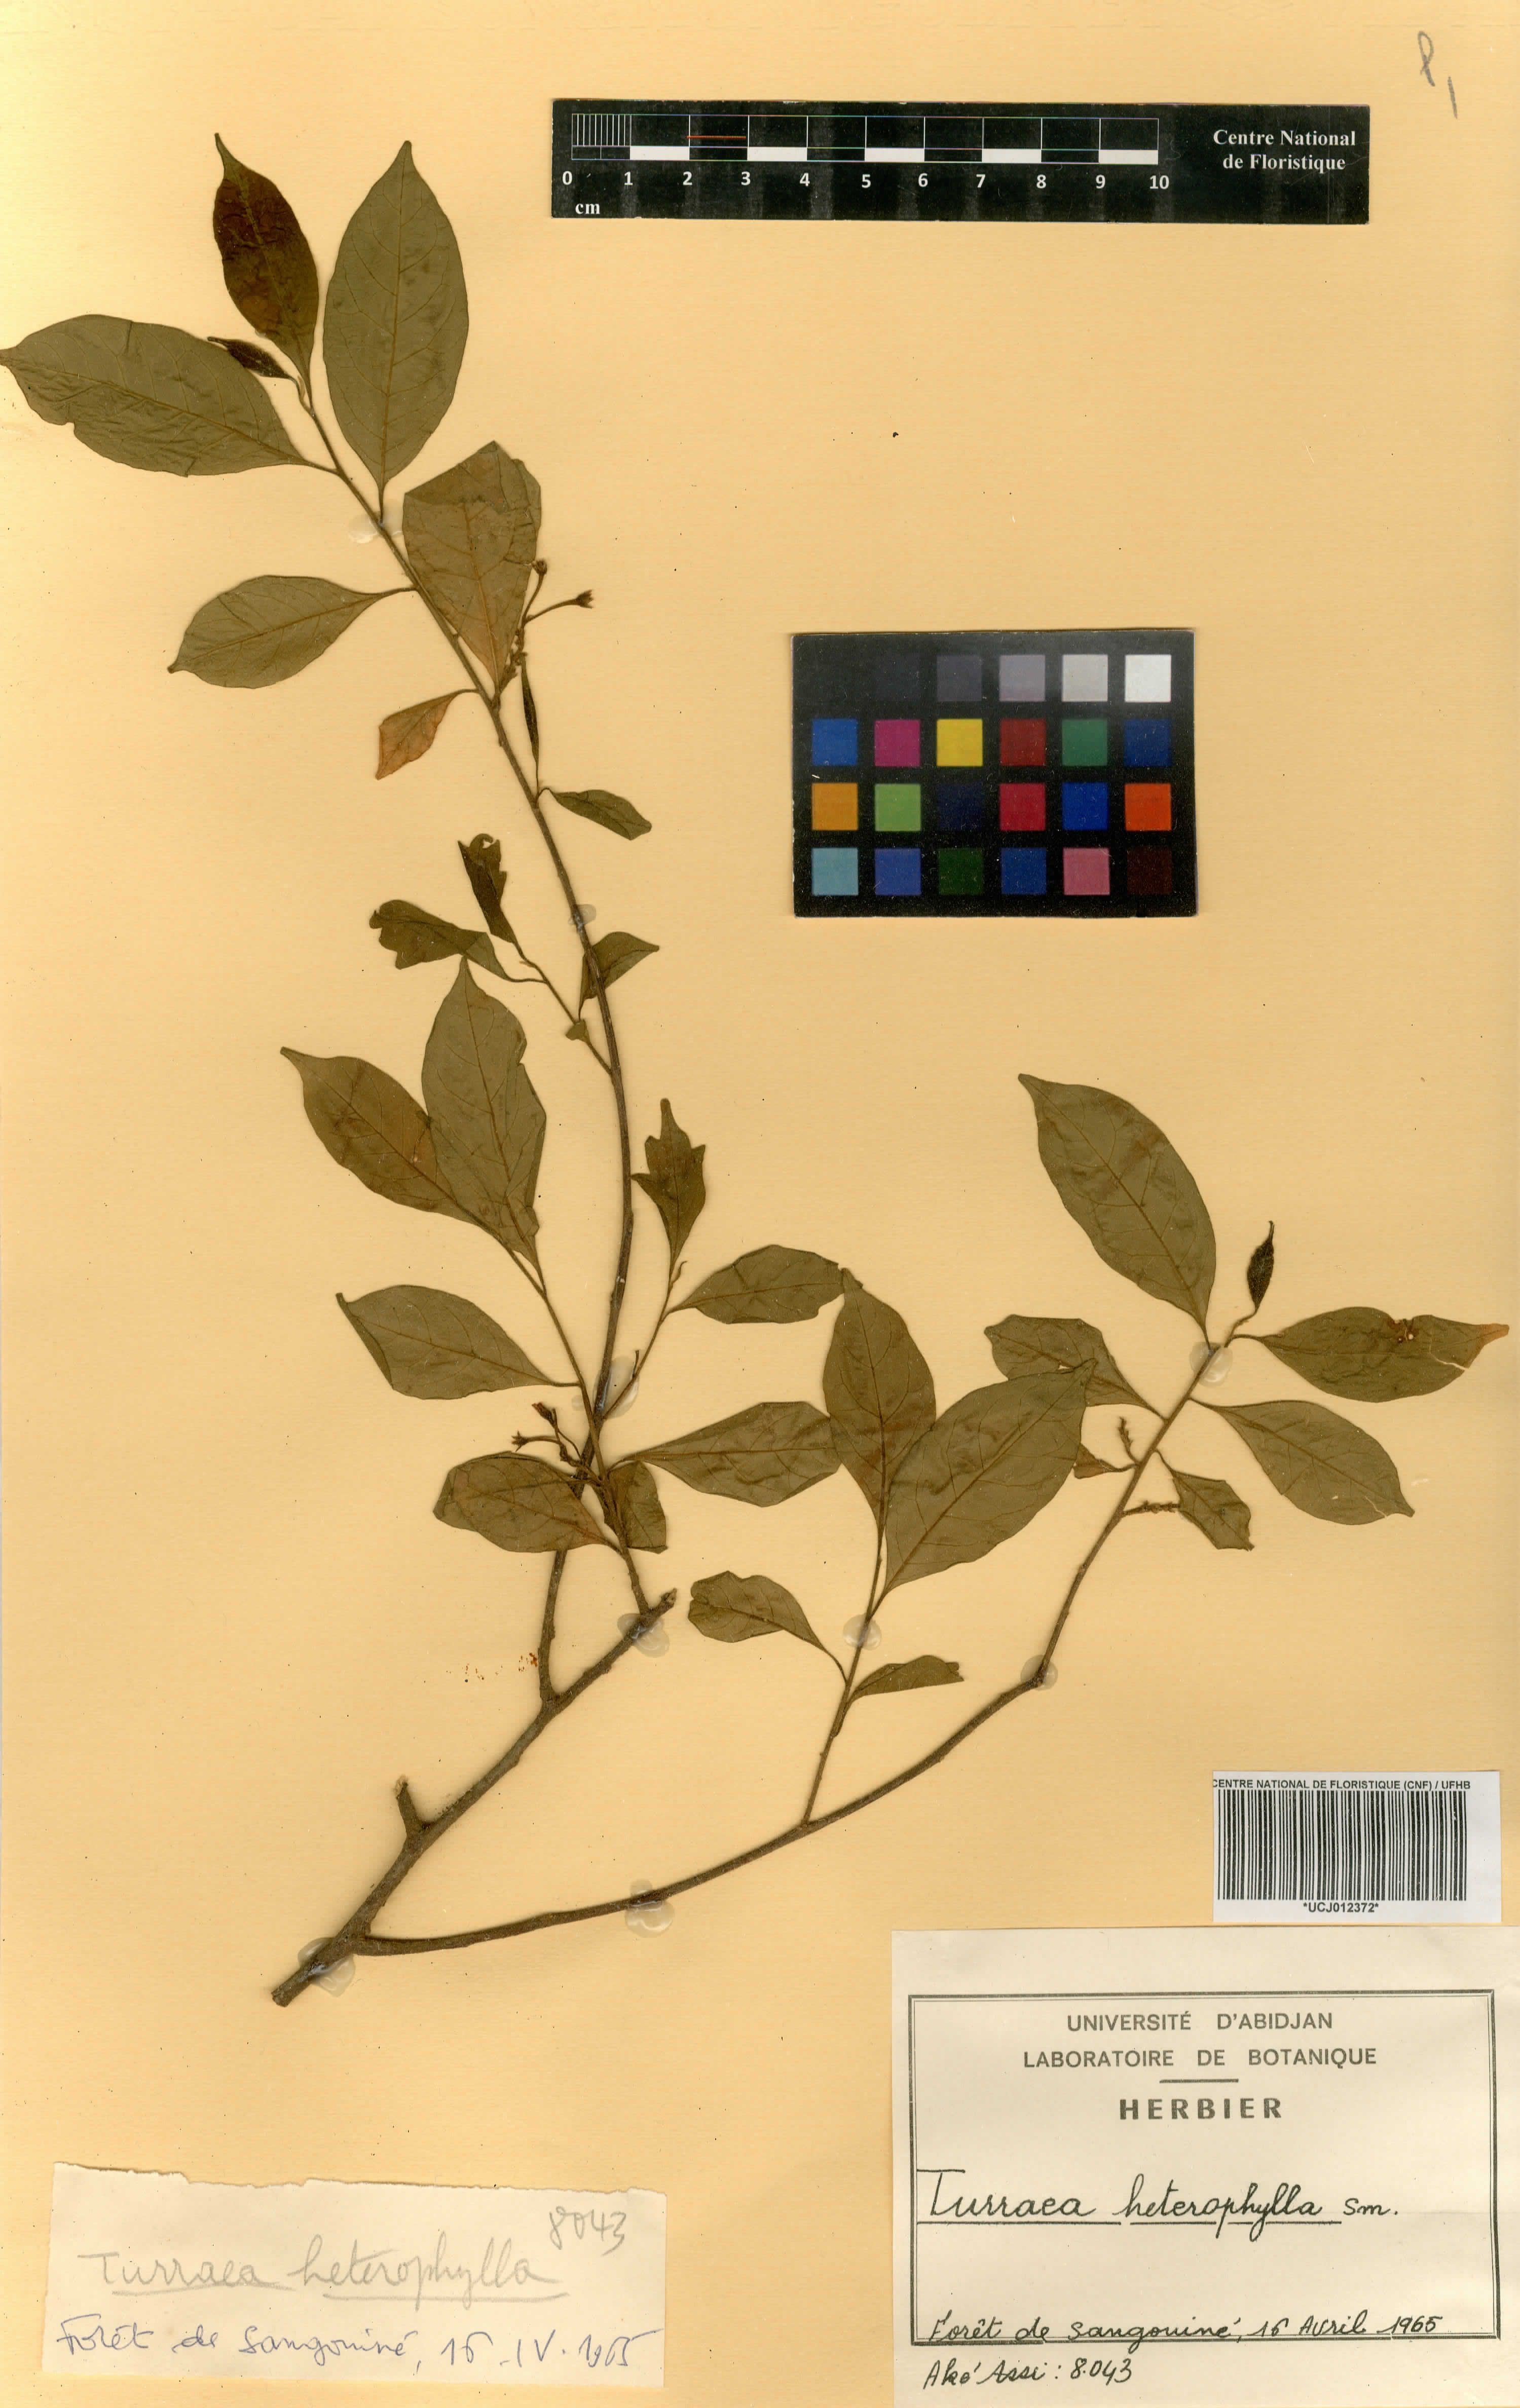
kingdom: Plantae
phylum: Tracheophyta
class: Magnoliopsida
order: Sapindales
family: Meliaceae
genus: Turraea
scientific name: Turraea heterophylla
